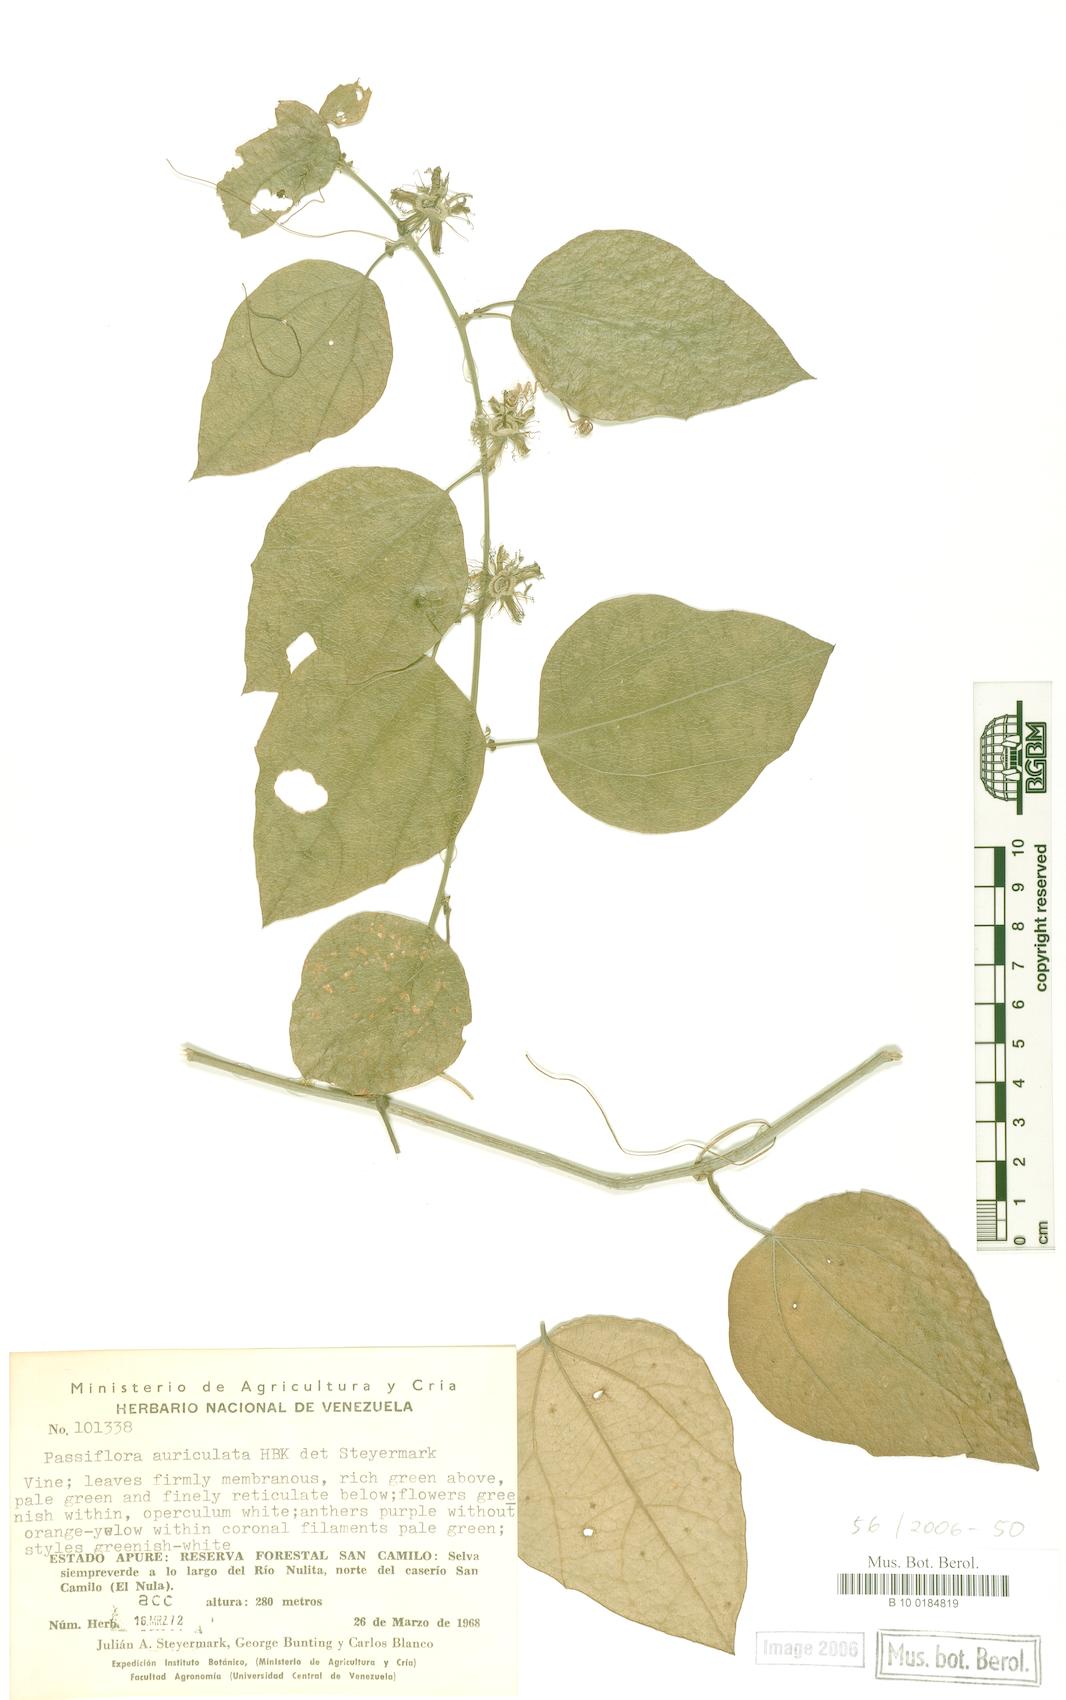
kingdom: Plantae
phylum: Tracheophyta
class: Magnoliopsida
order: Malpighiales
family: Passifloraceae
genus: Passiflora
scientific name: Passiflora auriculata
